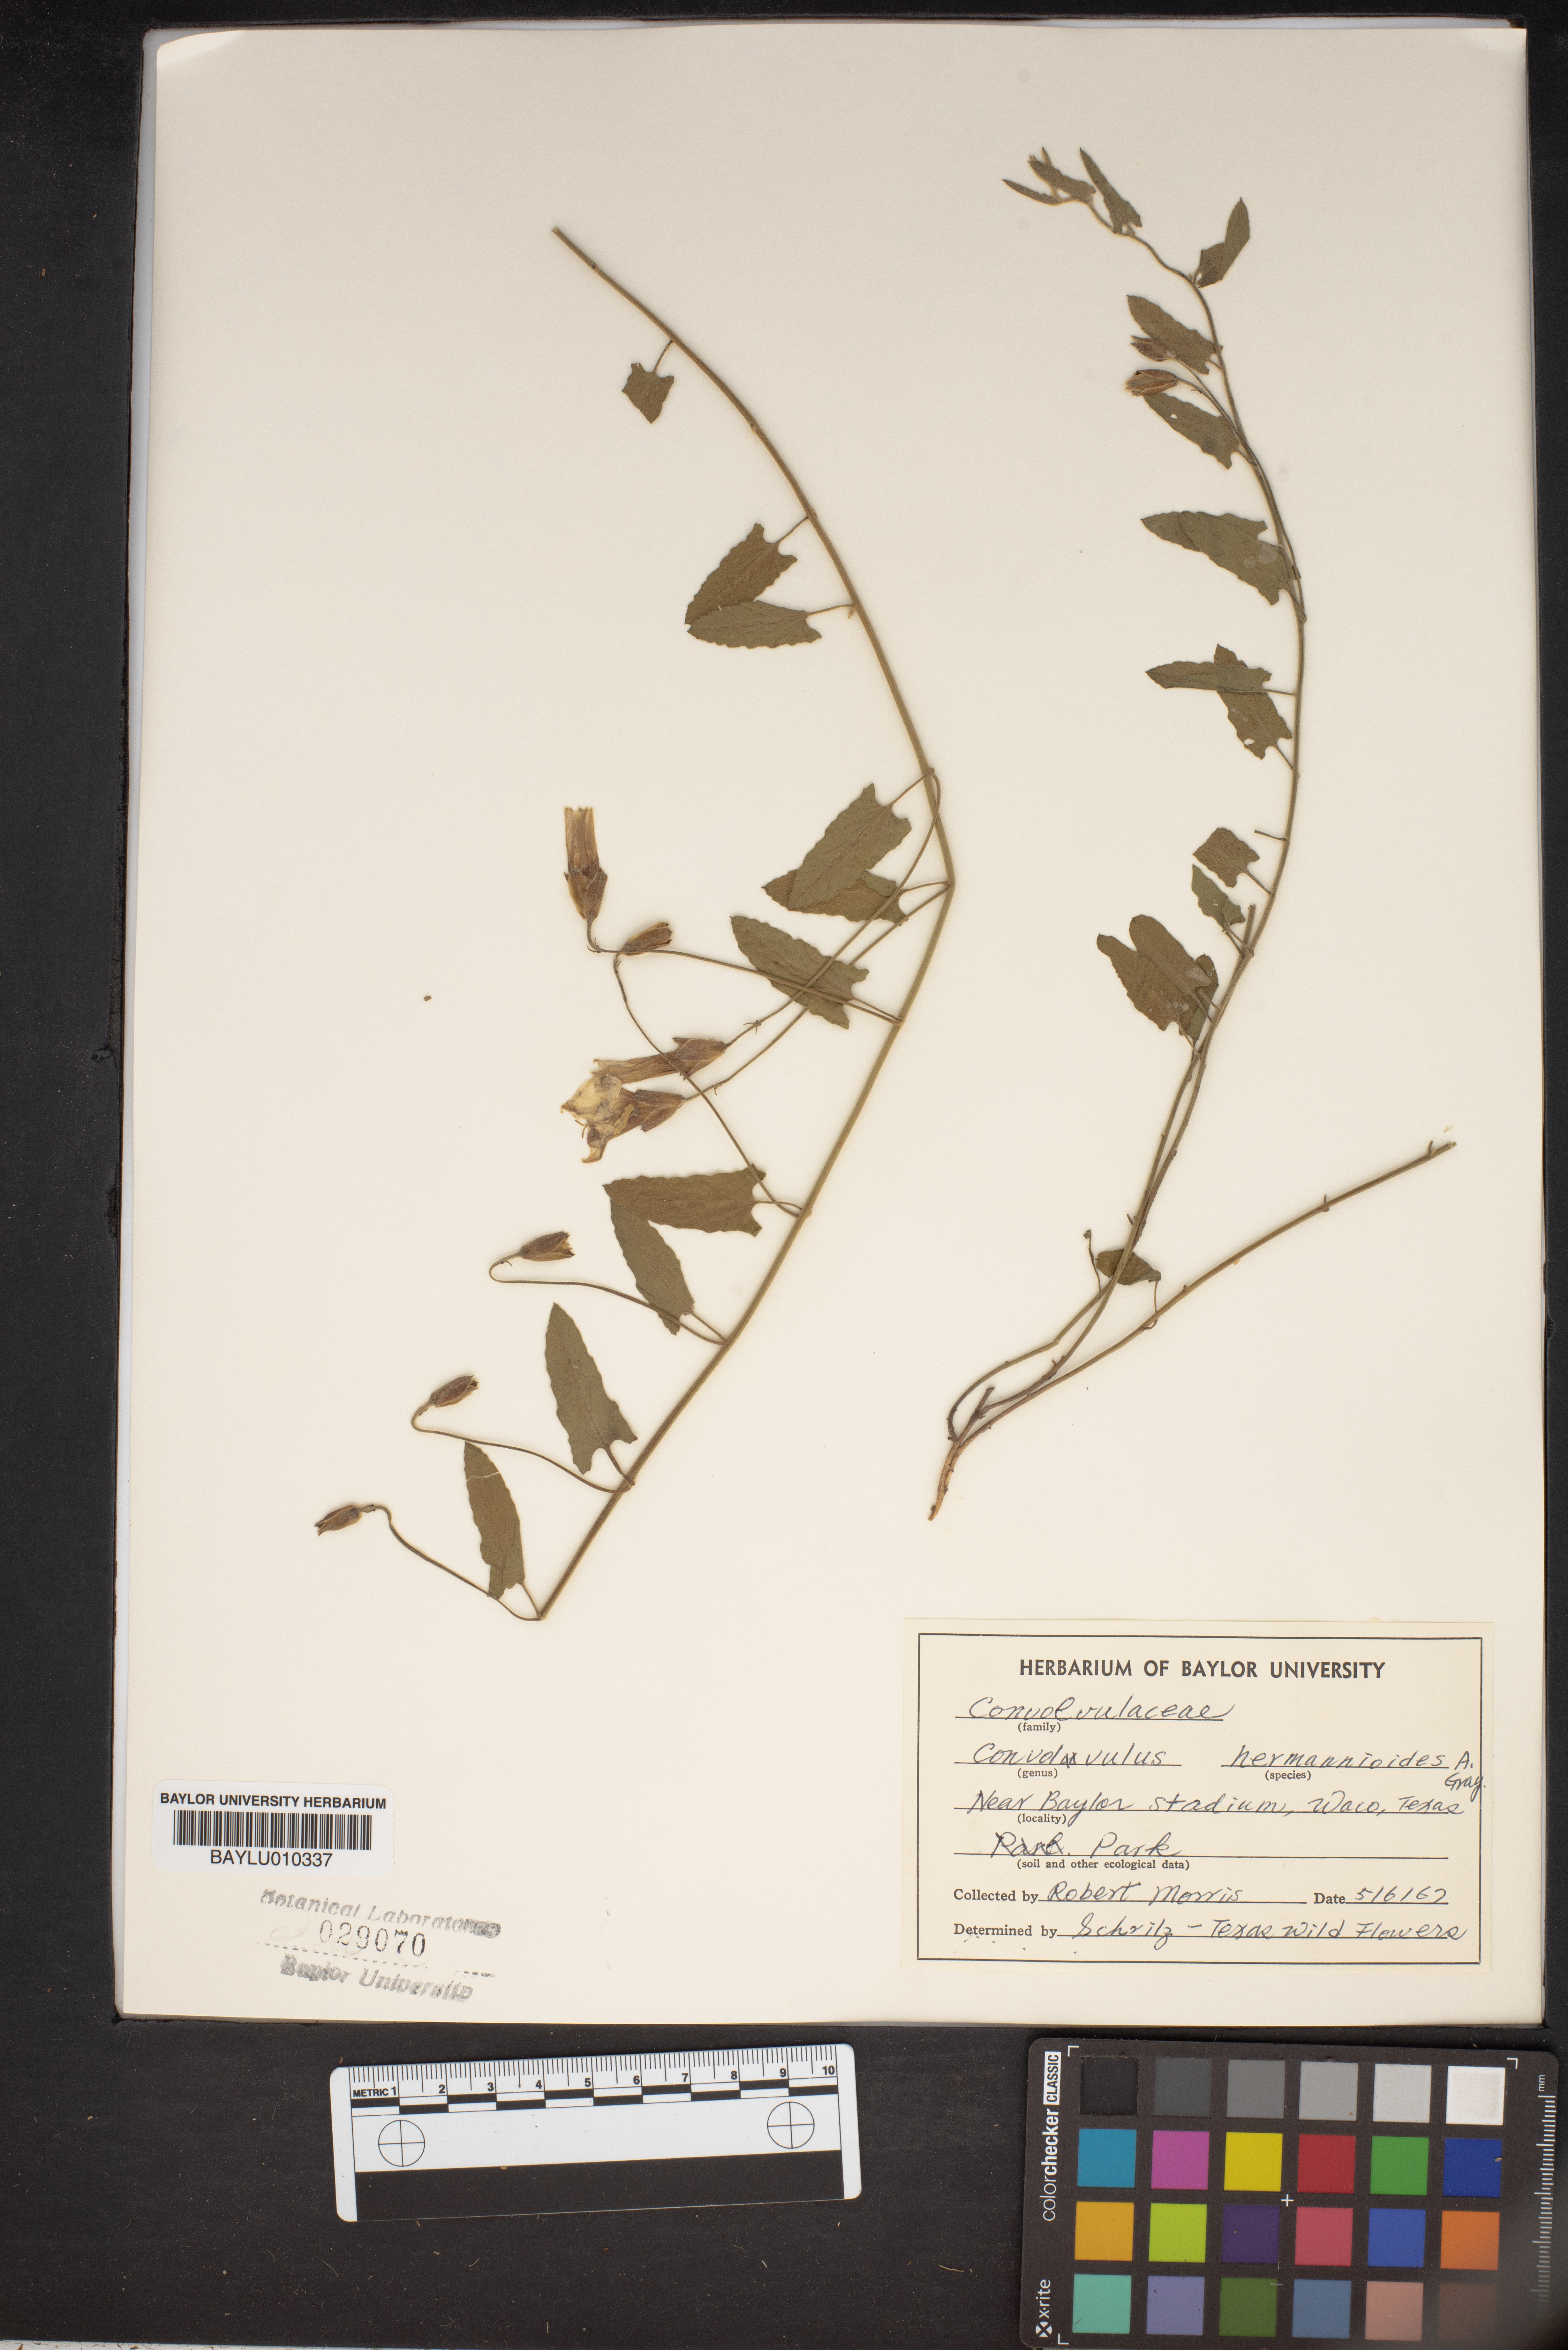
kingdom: Plantae
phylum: Tracheophyta
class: Magnoliopsida
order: Solanales
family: Convolvulaceae
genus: Convolvulus
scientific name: Convolvulus equitans
